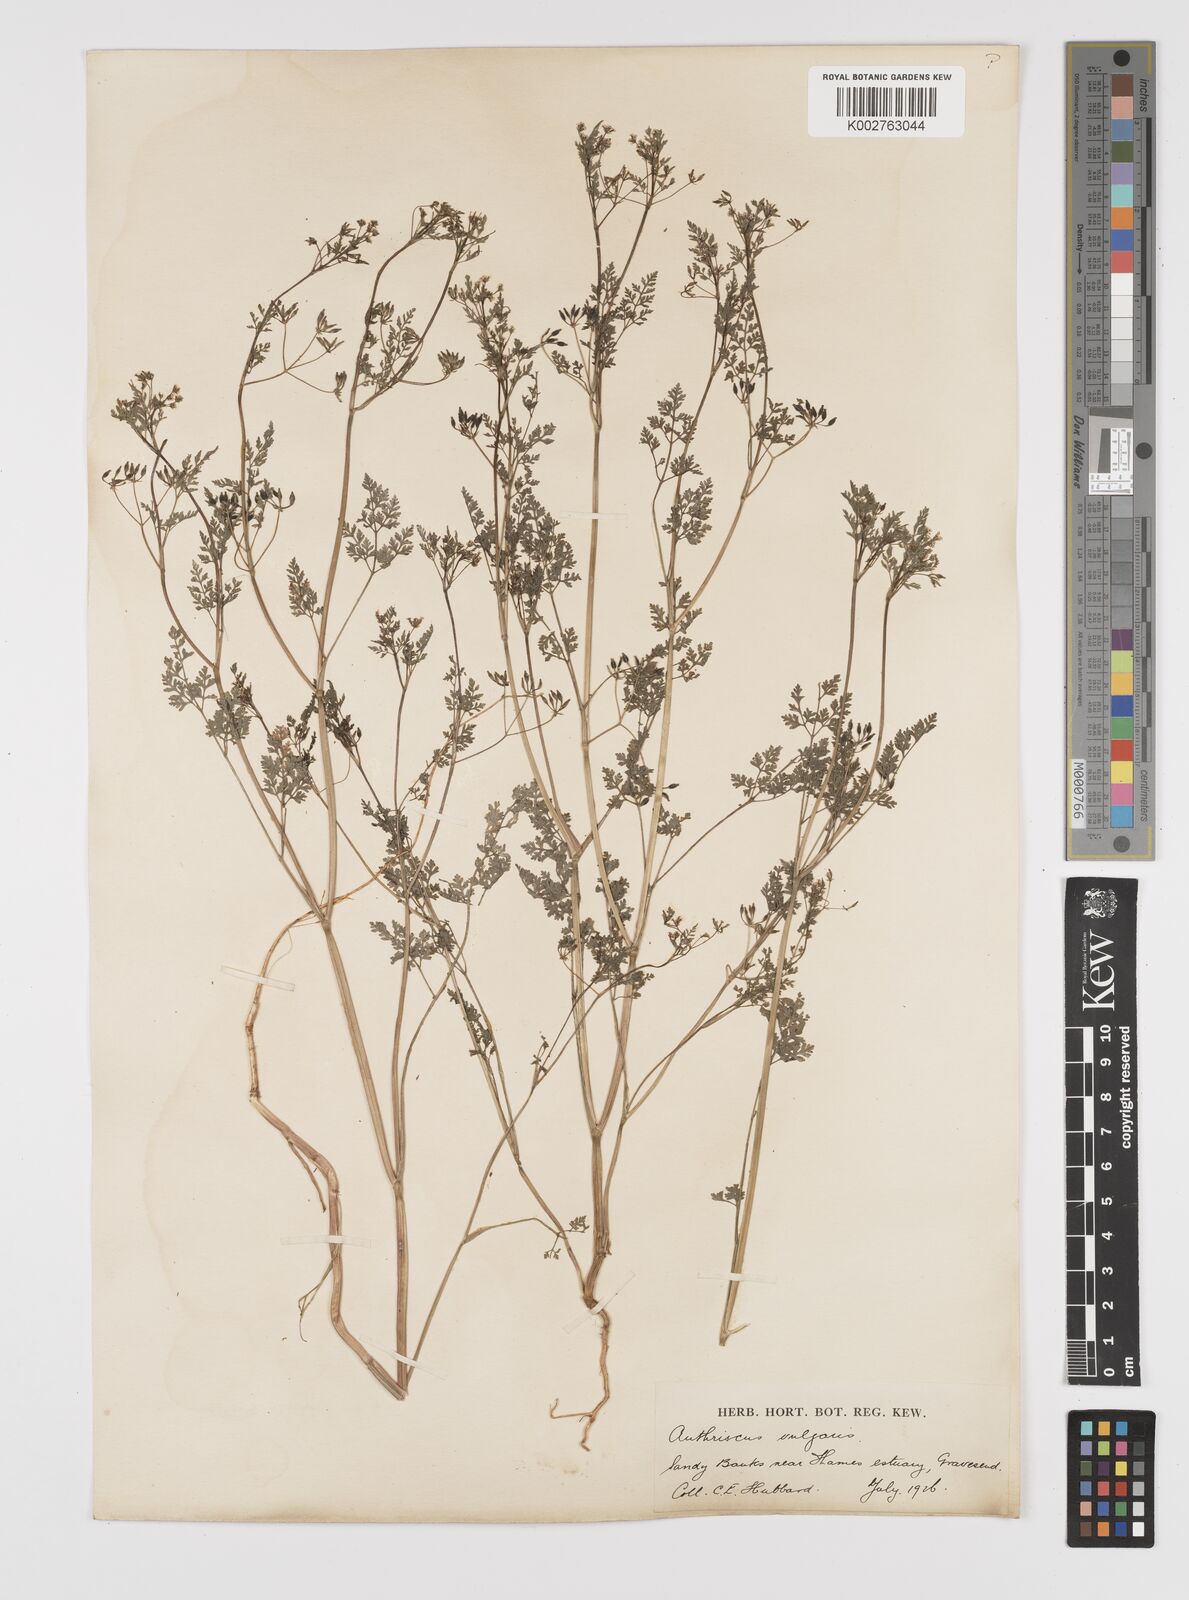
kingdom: Plantae
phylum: Tracheophyta
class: Magnoliopsida
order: Apiales
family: Apiaceae
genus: Anthriscus
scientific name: Anthriscus caucalis
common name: Bur chervil
